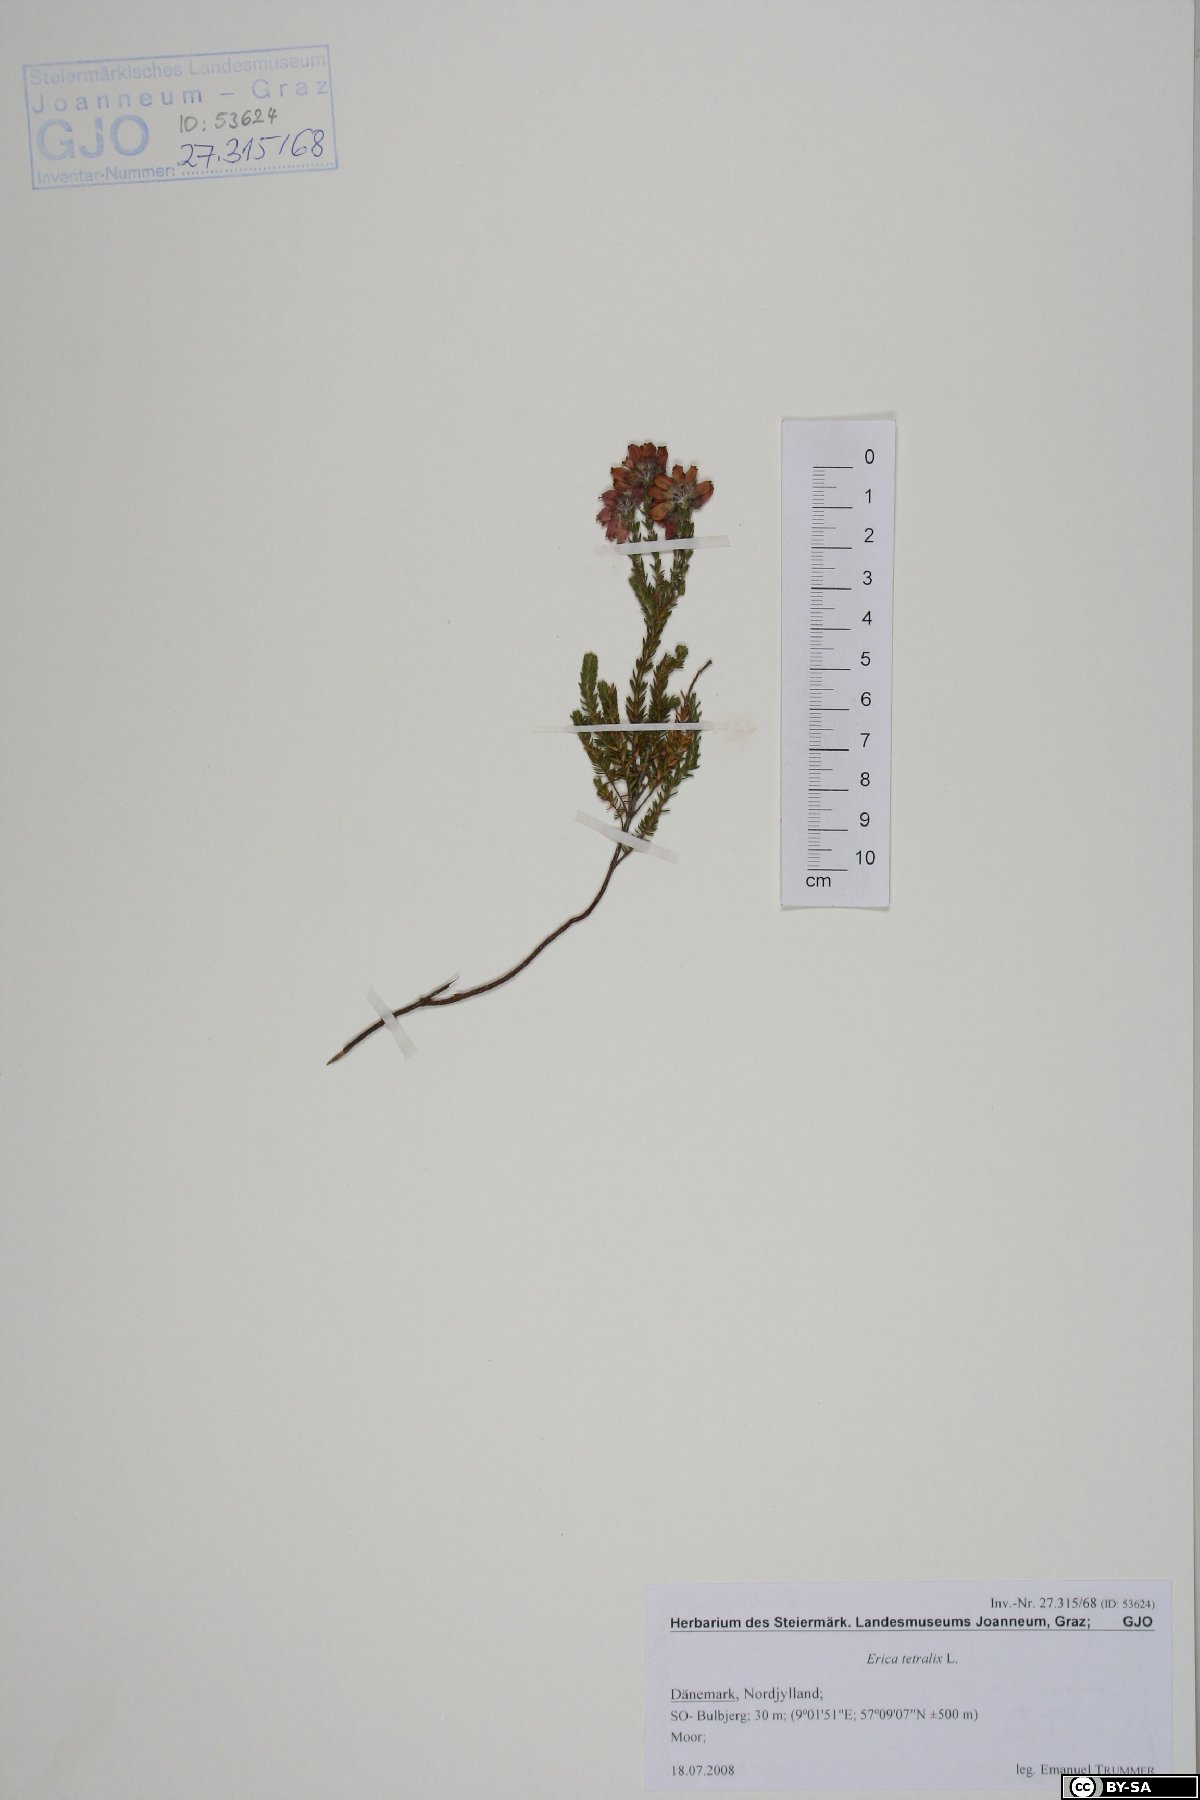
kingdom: Plantae
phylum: Tracheophyta
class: Magnoliopsida
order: Ericales
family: Ericaceae
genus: Erica
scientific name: Erica tetralix
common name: Cross-leaved heath
